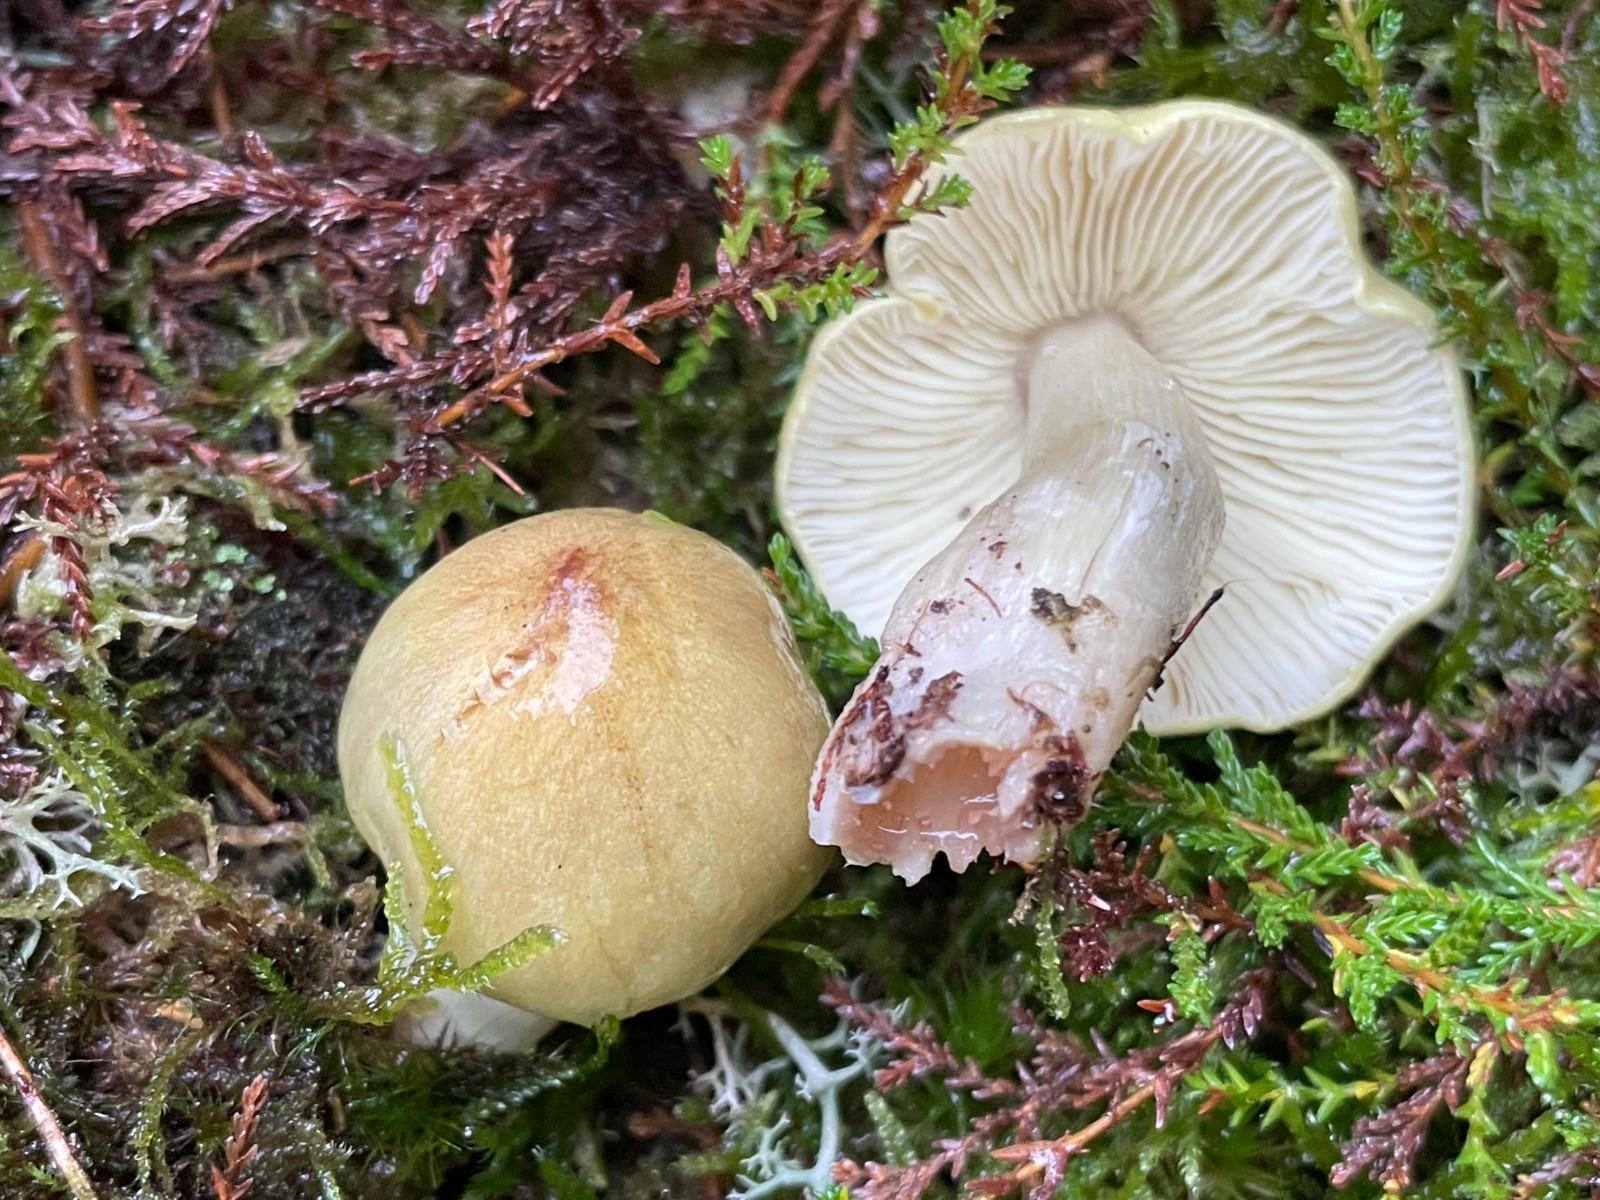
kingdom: Fungi
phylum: Basidiomycota
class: Agaricomycetes
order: Agaricales
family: Tricholomataceae
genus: Tricholoma
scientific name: Tricholoma aestuans
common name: kegle-ridderhat
